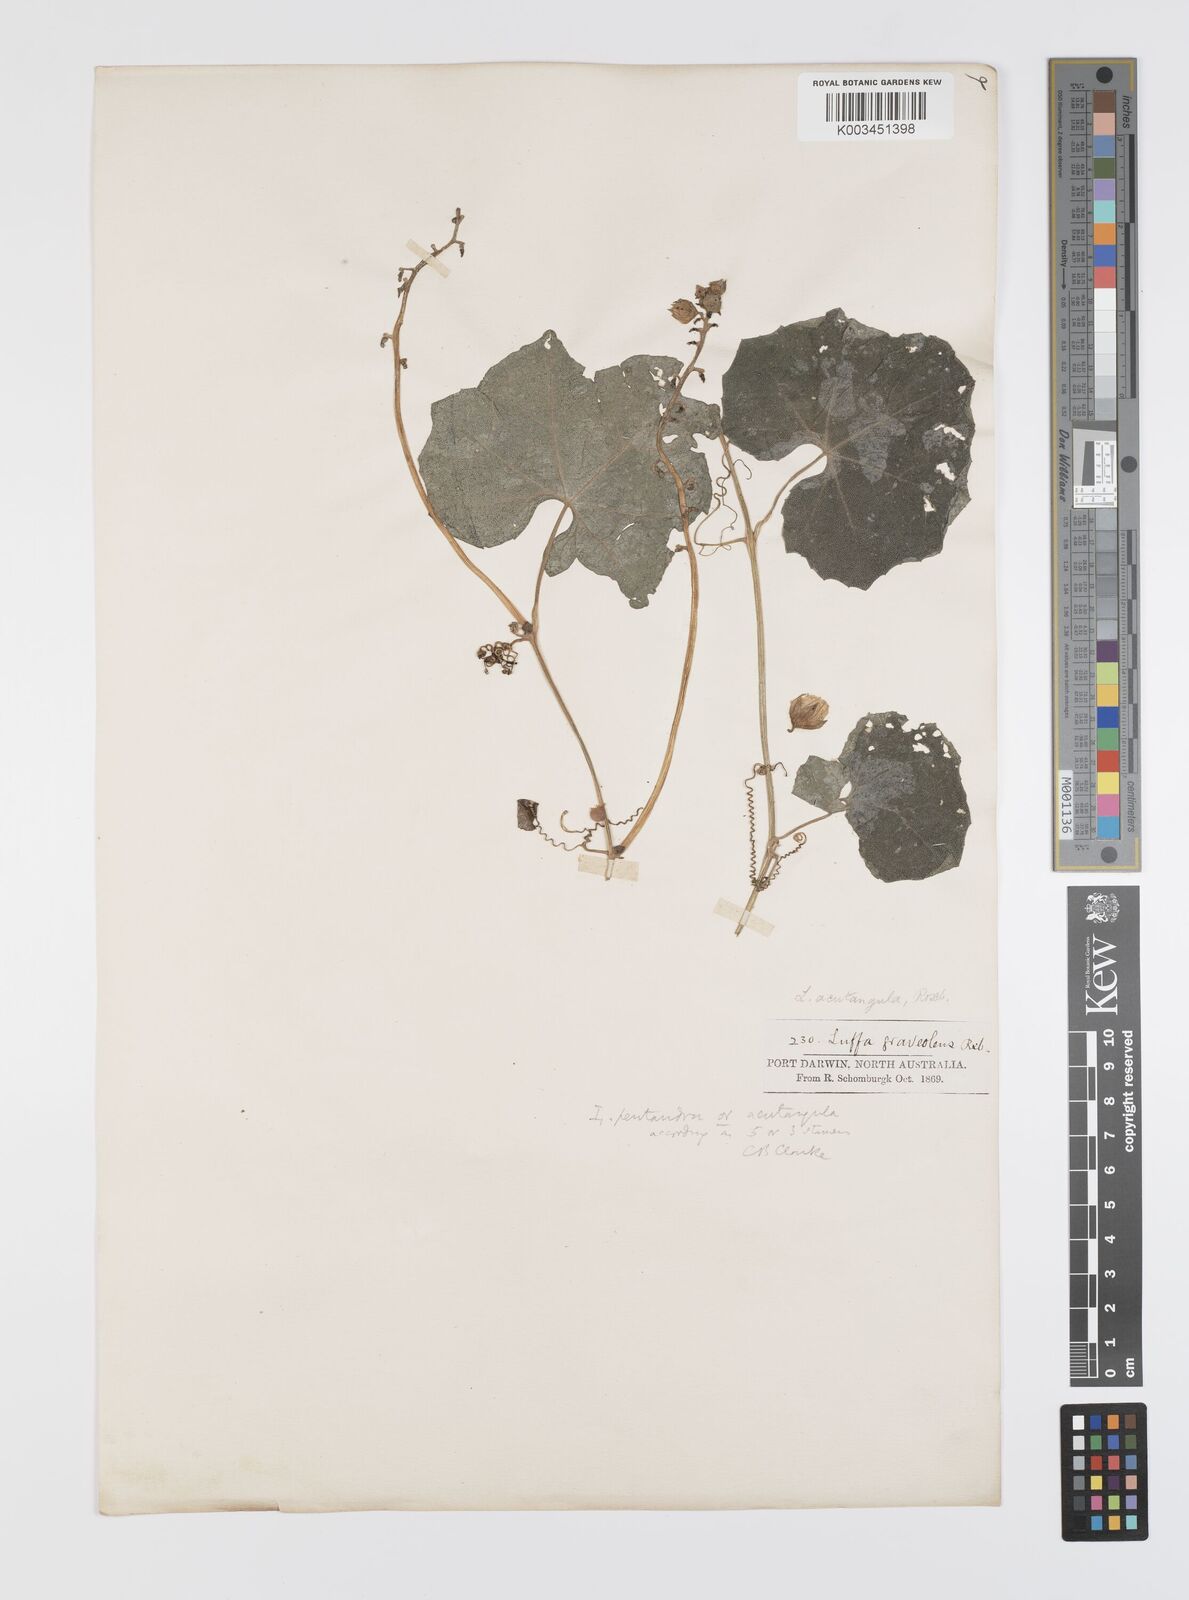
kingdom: Plantae
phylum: Tracheophyta
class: Magnoliopsida
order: Cucurbitales
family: Cucurbitaceae
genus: Luffa
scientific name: Luffa graveolens
